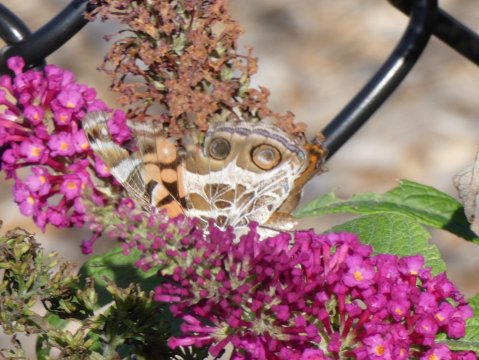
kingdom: Animalia
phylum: Arthropoda
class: Insecta
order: Lepidoptera
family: Nymphalidae
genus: Vanessa
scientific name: Vanessa virginiensis
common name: American Lady
